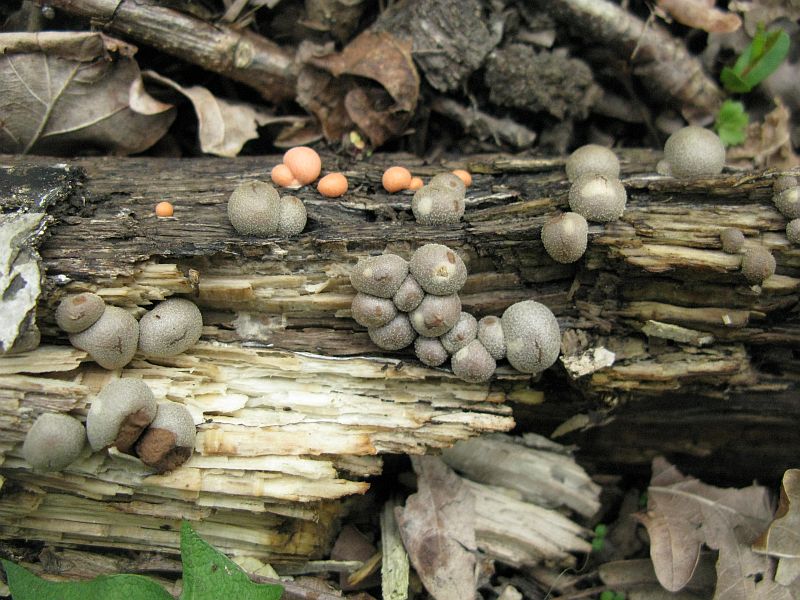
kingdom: Protozoa
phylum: Mycetozoa
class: Myxomycetes
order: Cribrariales
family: Tubiferaceae
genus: Lycogala
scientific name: Lycogala epidendrum
